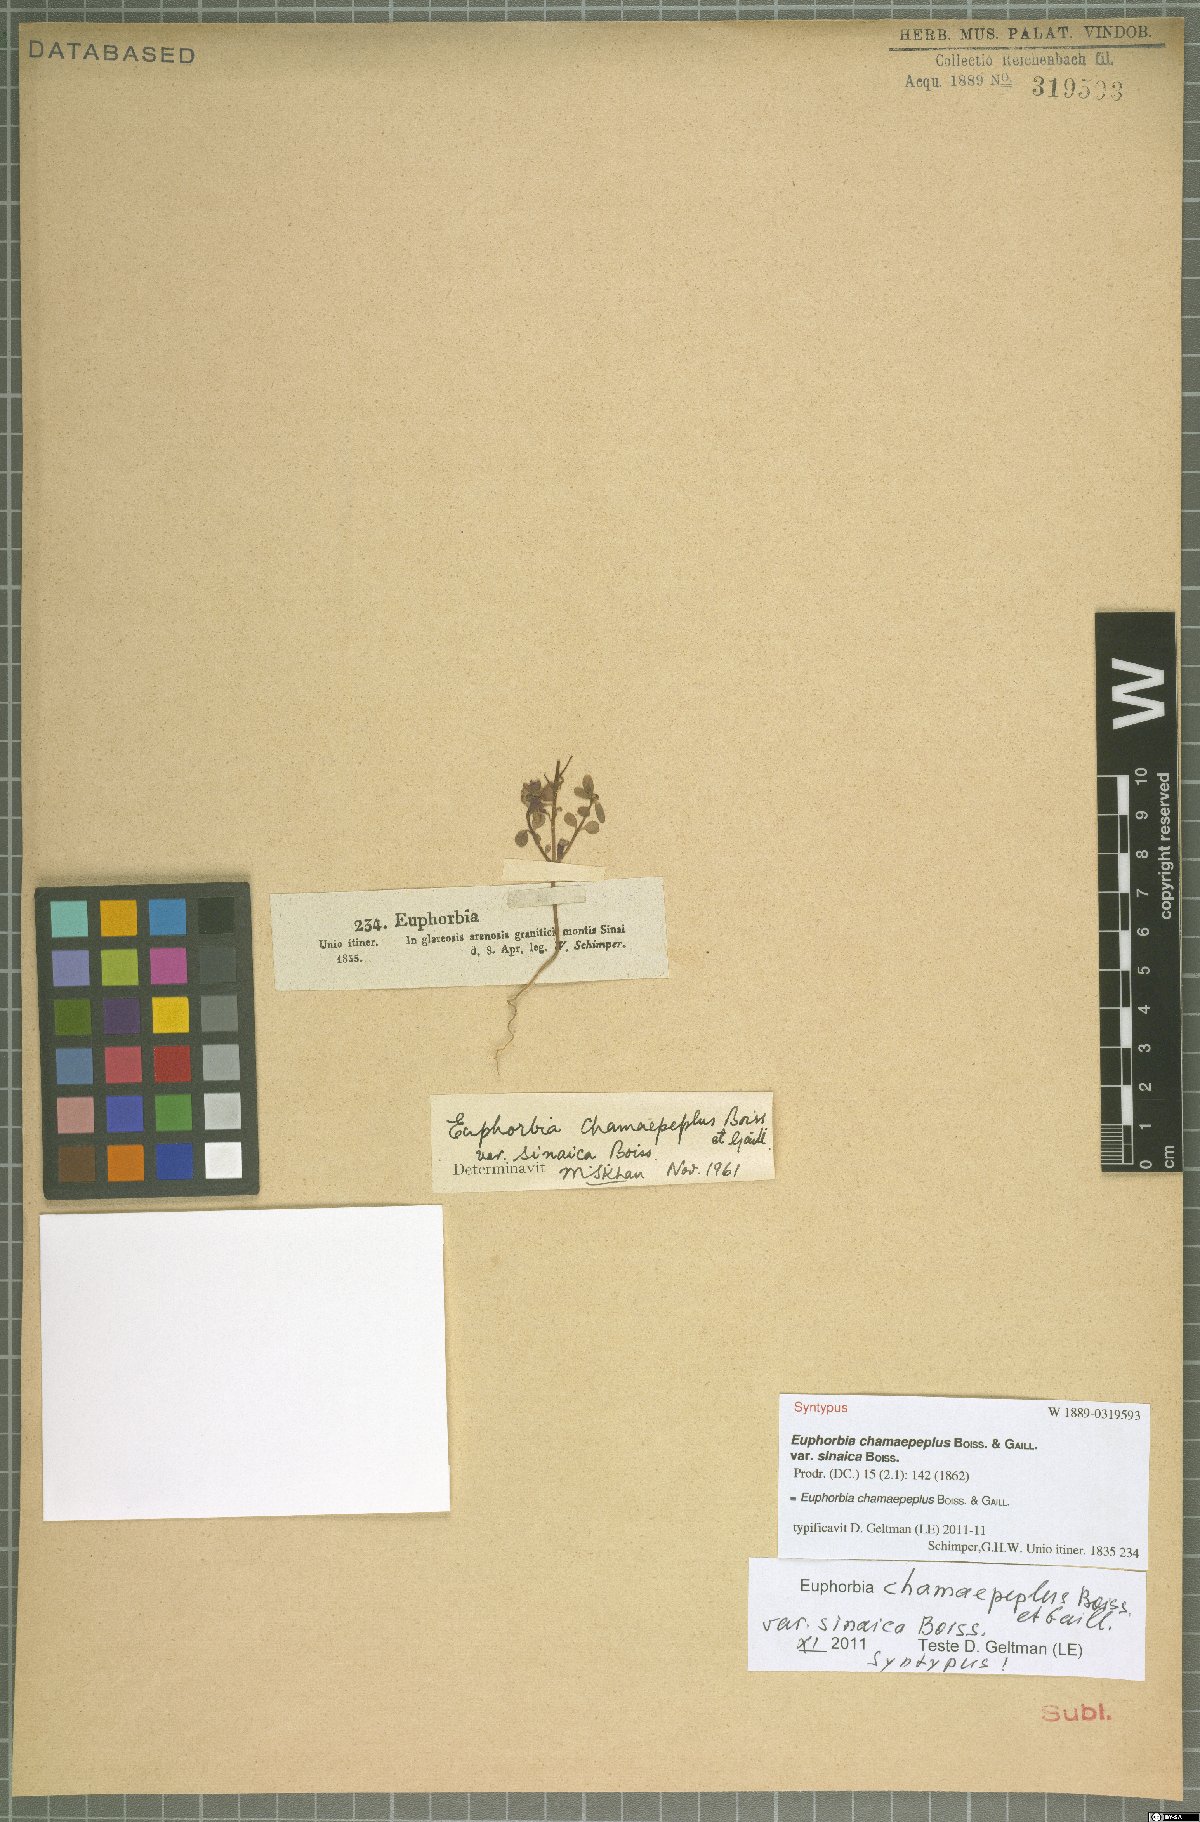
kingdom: Plantae
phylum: Tracheophyta
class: Magnoliopsida
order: Malpighiales
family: Euphorbiaceae
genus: Euphorbia
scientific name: Euphorbia chamaepeplus
